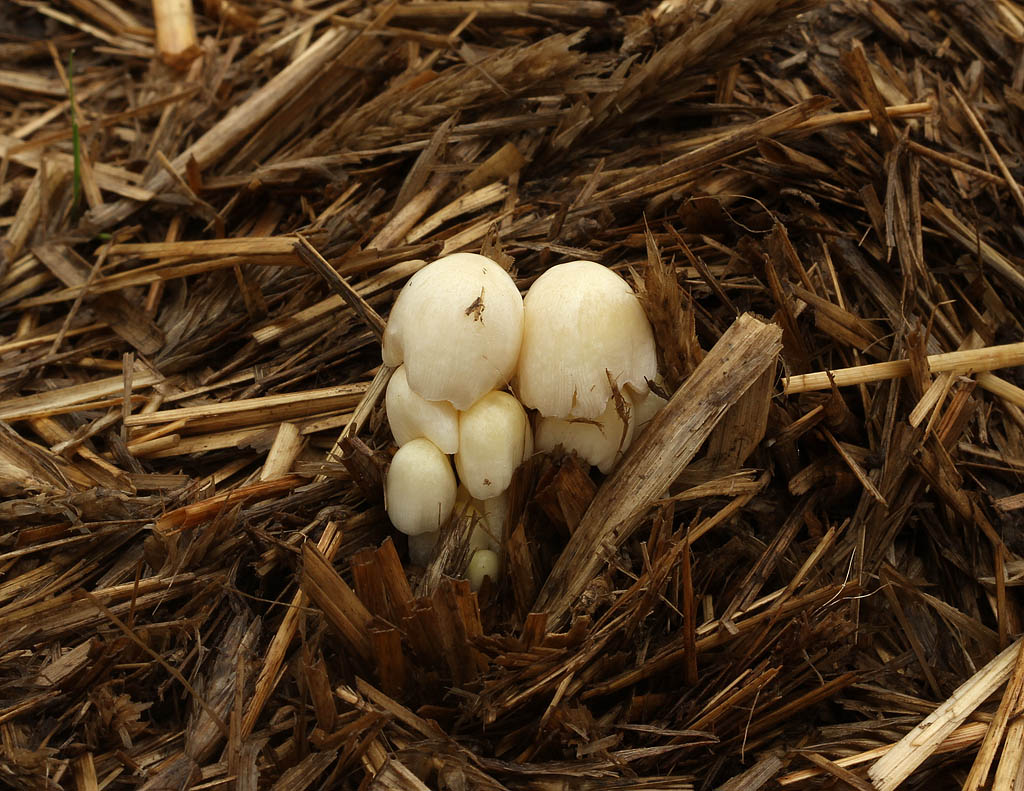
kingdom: Fungi
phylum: Basidiomycota
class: Agaricomycetes
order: Agaricales
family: Bolbitiaceae
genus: Bolbitius
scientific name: Bolbitius titubans
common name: almindelig gulhat
